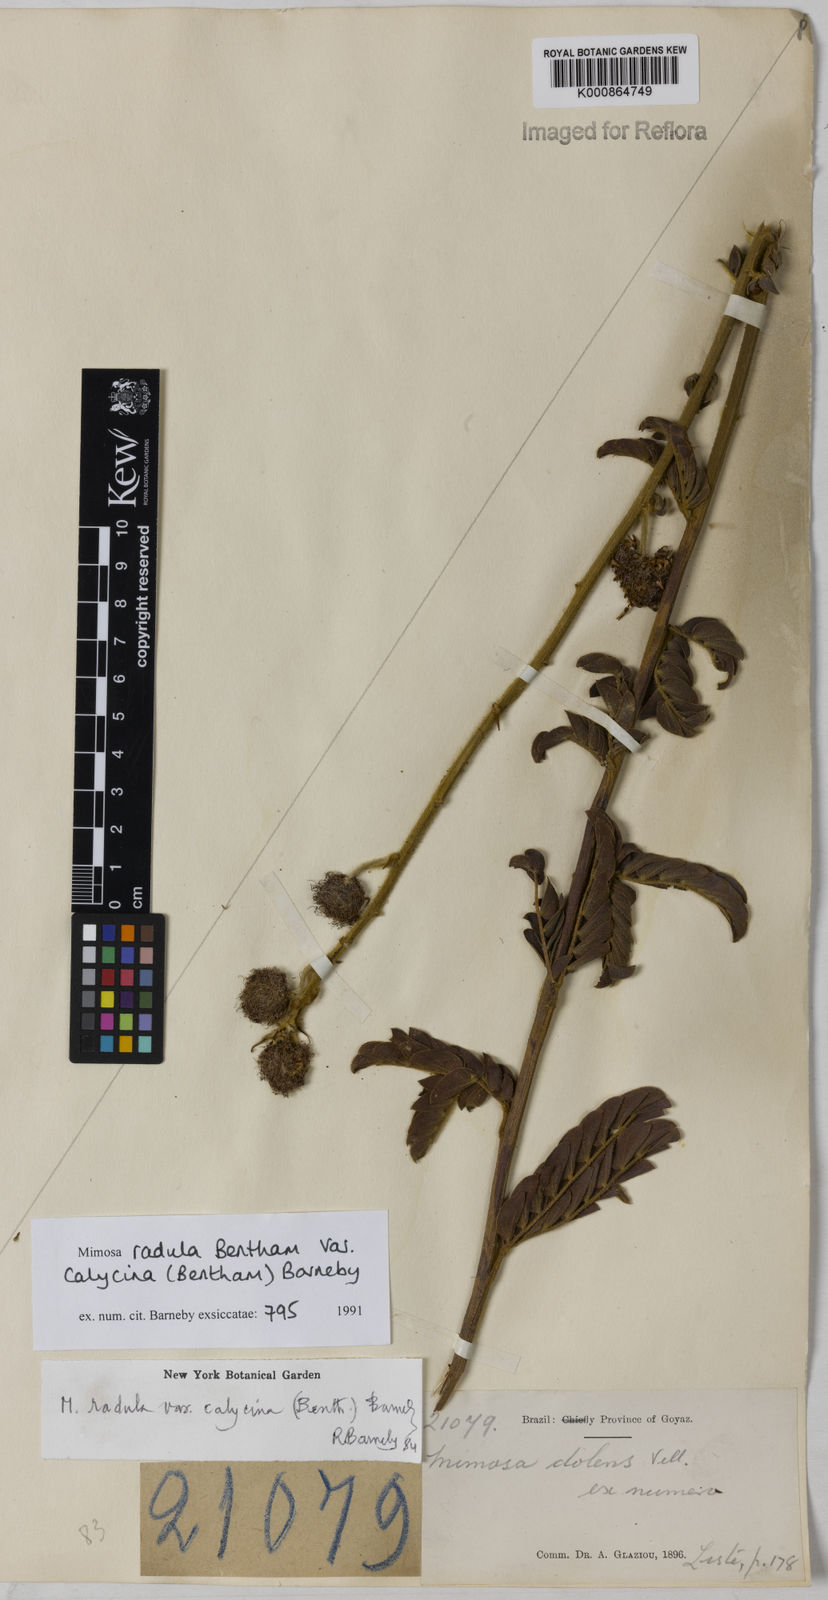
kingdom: Plantae
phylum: Tracheophyta
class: Magnoliopsida
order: Fabales
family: Fabaceae
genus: Mimosa
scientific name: Mimosa radula
